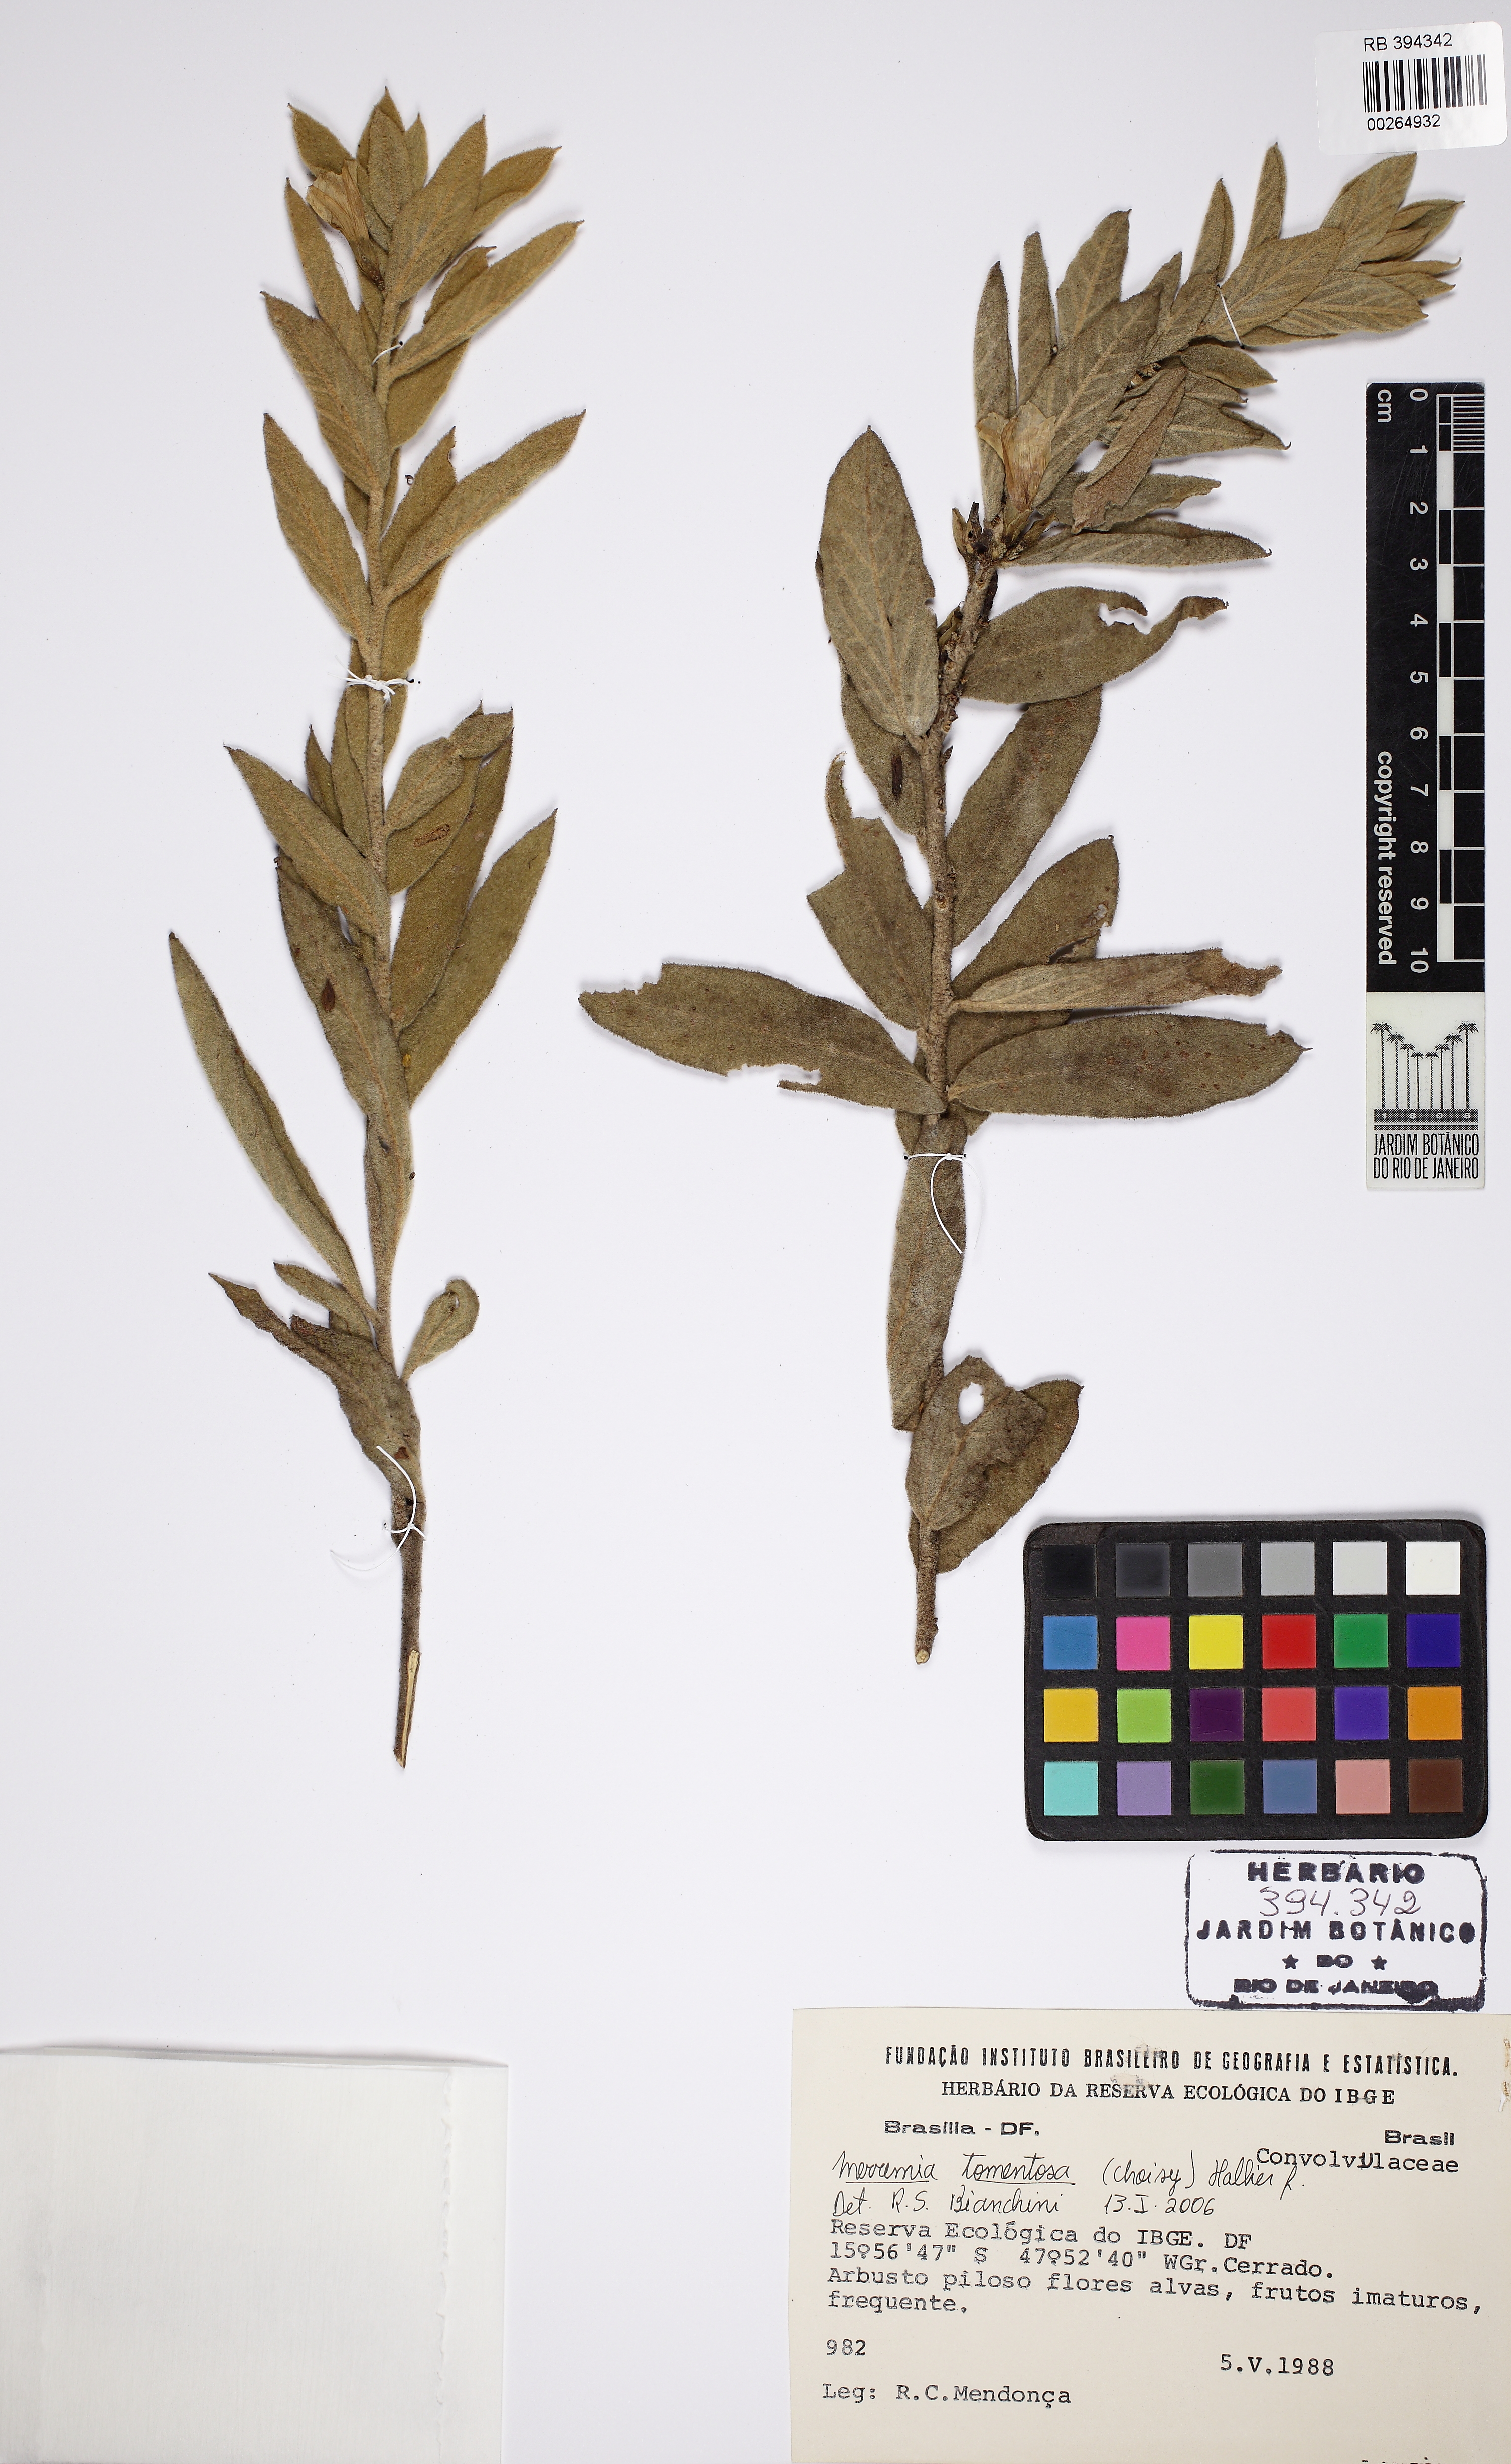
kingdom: Plantae
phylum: Tracheophyta
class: Magnoliopsida
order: Solanales
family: Convolvulaceae
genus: Distimake
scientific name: Distimake tomentosus
